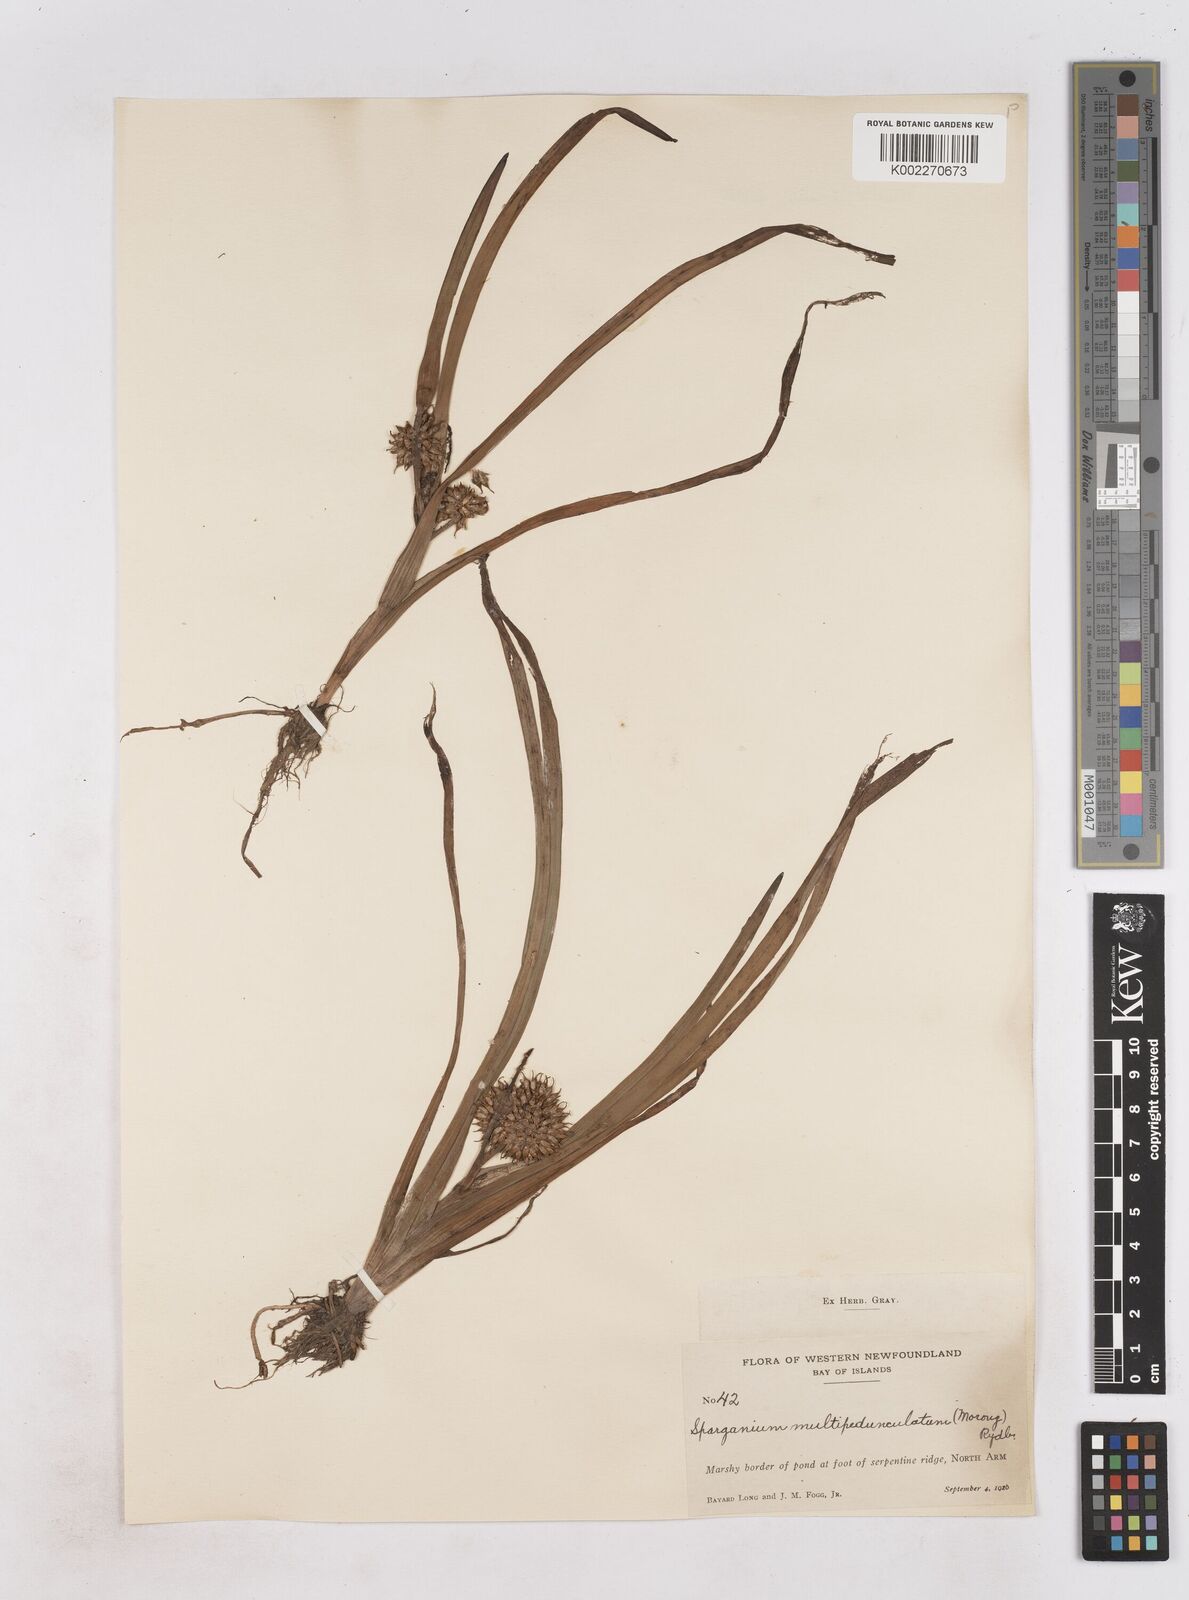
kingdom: Plantae
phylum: Tracheophyta
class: Liliopsida
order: Poales
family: Typhaceae
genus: Sparganium
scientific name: Sparganium emersum
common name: Unbranched bur-reed
